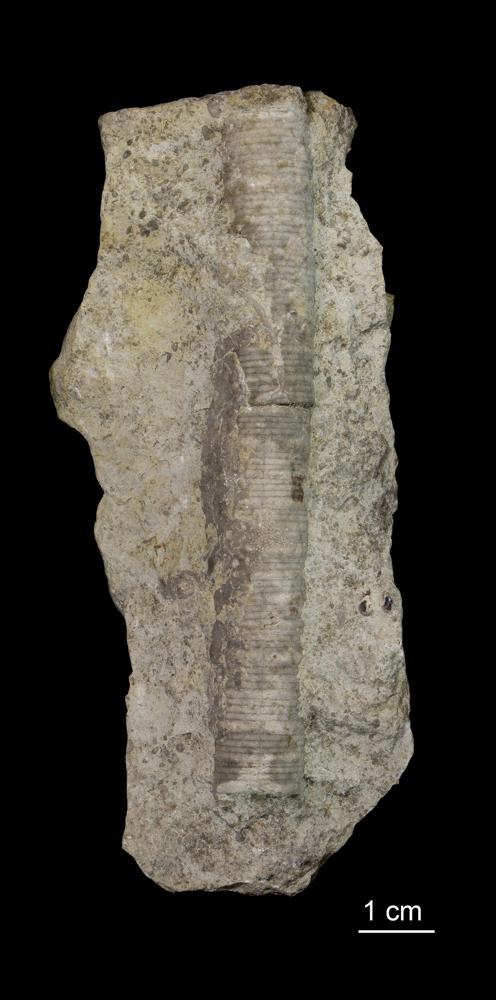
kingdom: Animalia
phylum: Echinodermata
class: Crinoidea
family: Crotalocrinitidae
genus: Crotalocrinus
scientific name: Crotalocrinus
